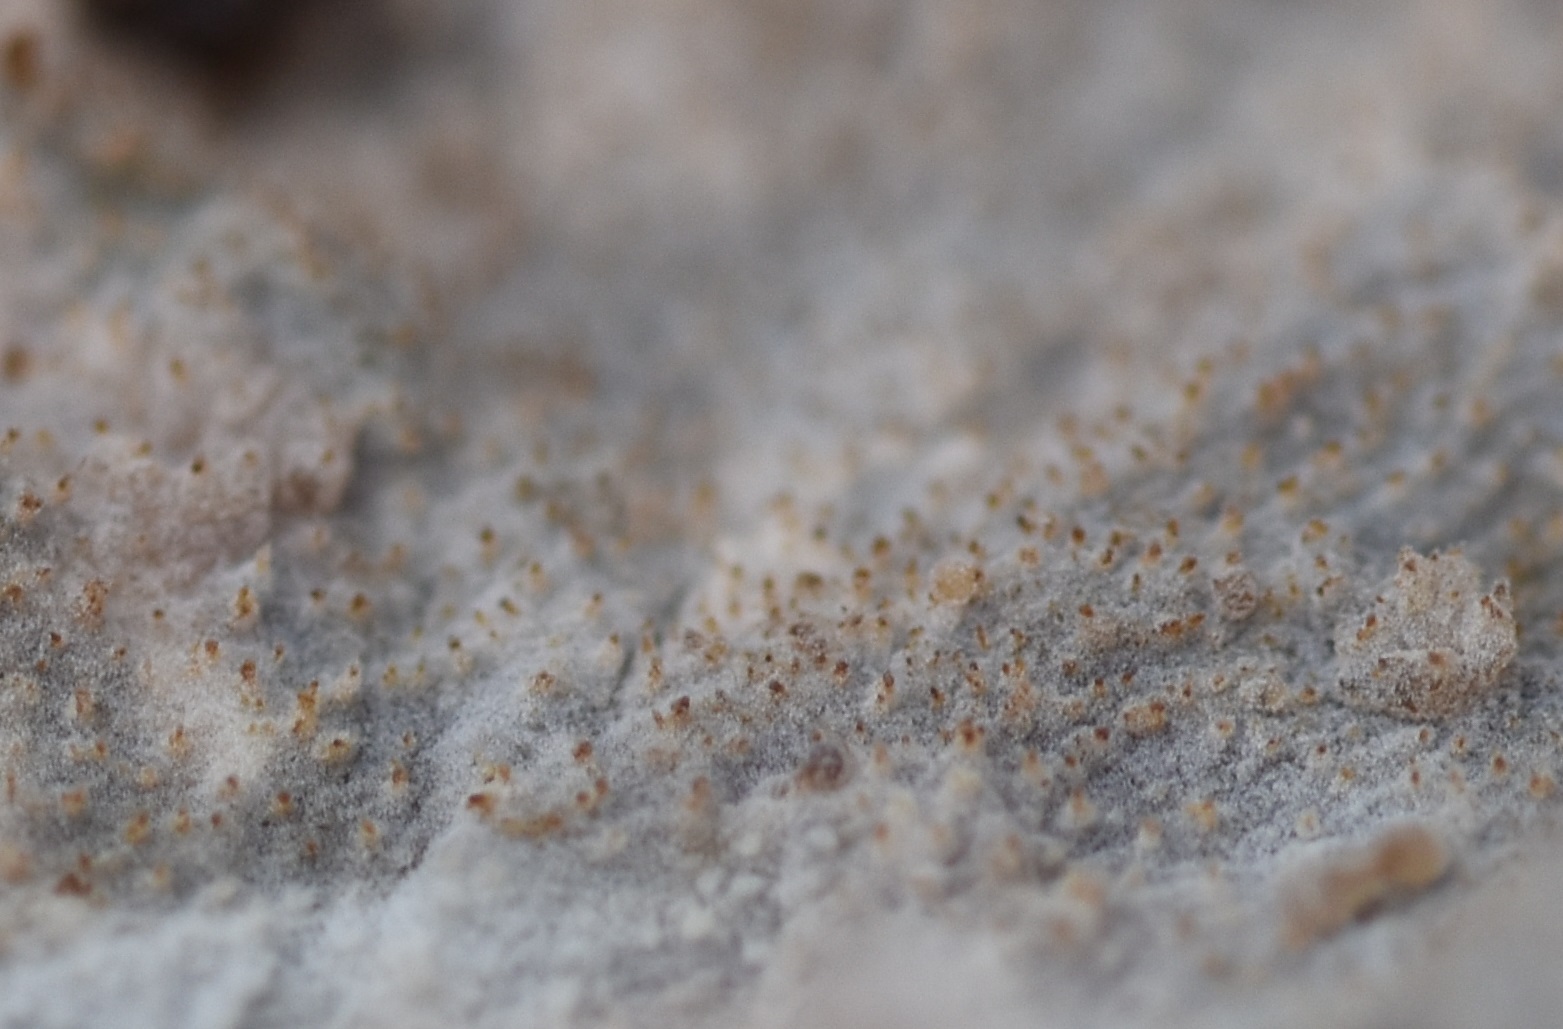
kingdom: Fungi
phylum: Basidiomycota
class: Agaricomycetes
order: Hymenochaetales
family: Rickenellaceae
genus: Resinicium
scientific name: Resinicium bicolor
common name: almindelig vokstand
